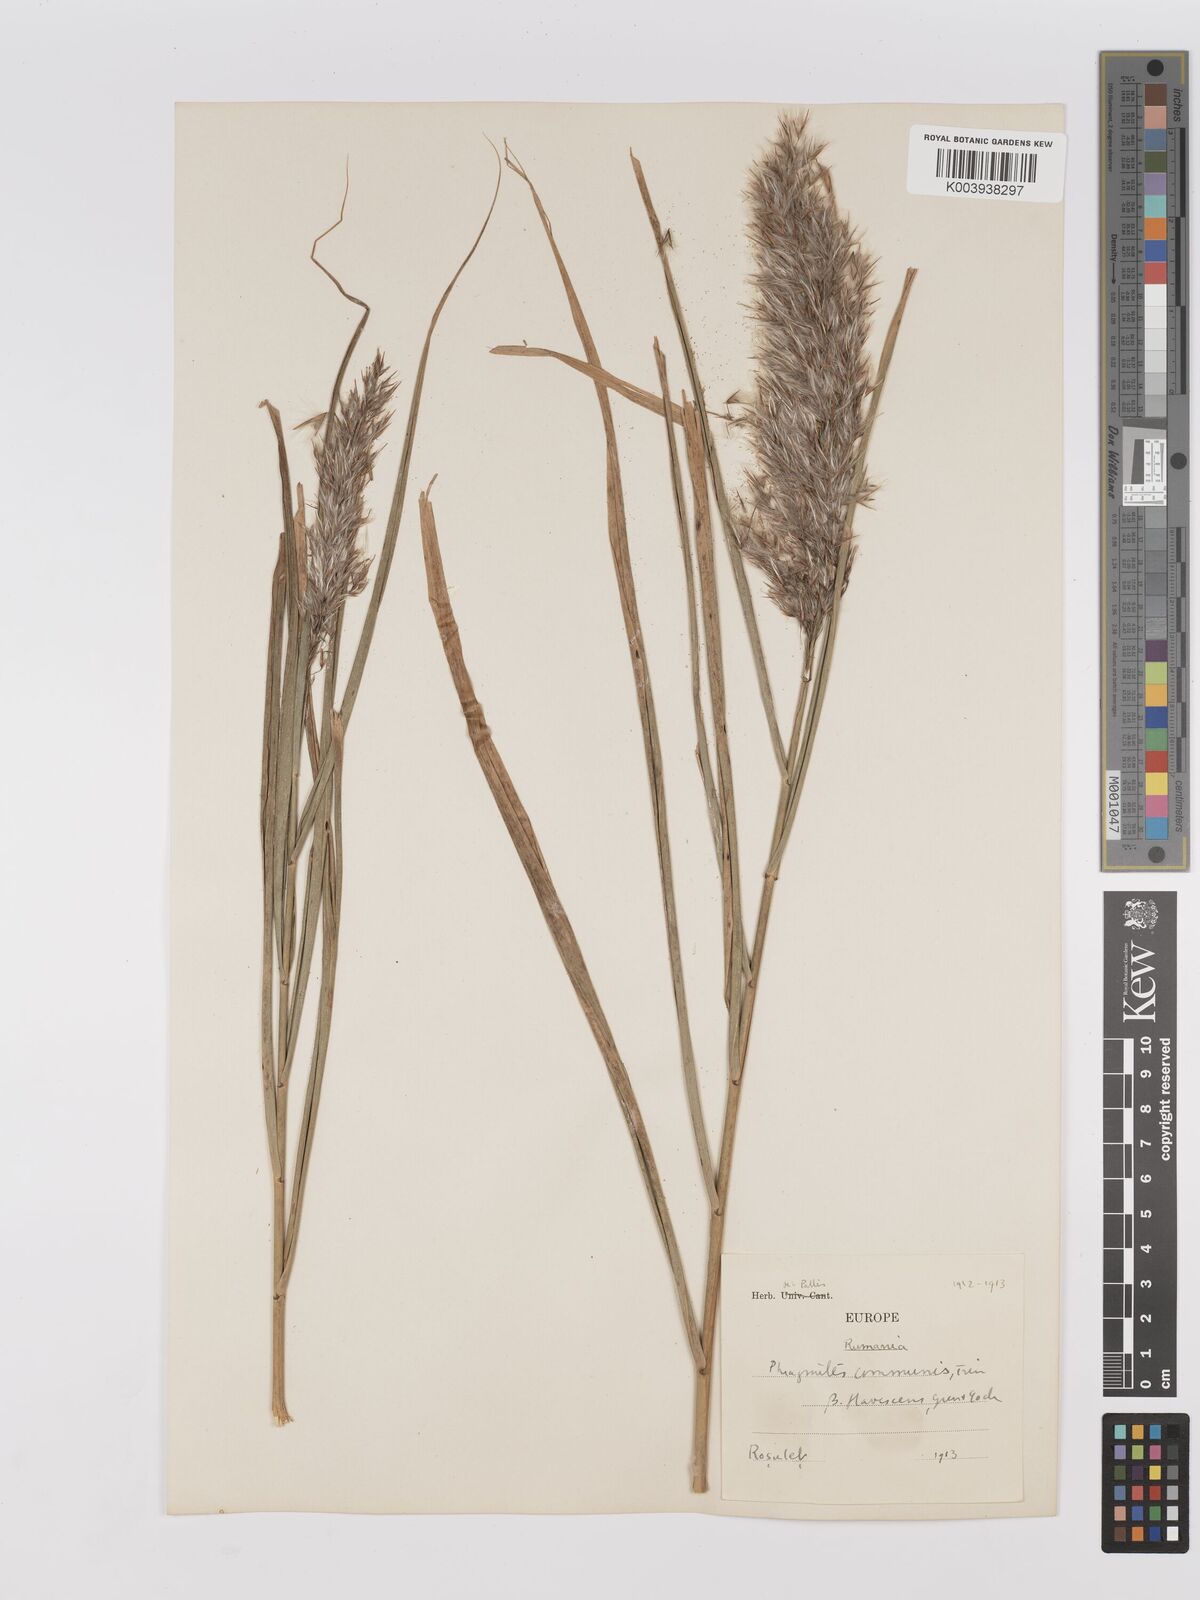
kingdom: Plantae
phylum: Tracheophyta
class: Liliopsida
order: Poales
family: Poaceae
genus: Phragmites
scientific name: Phragmites australis
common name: Common reed
